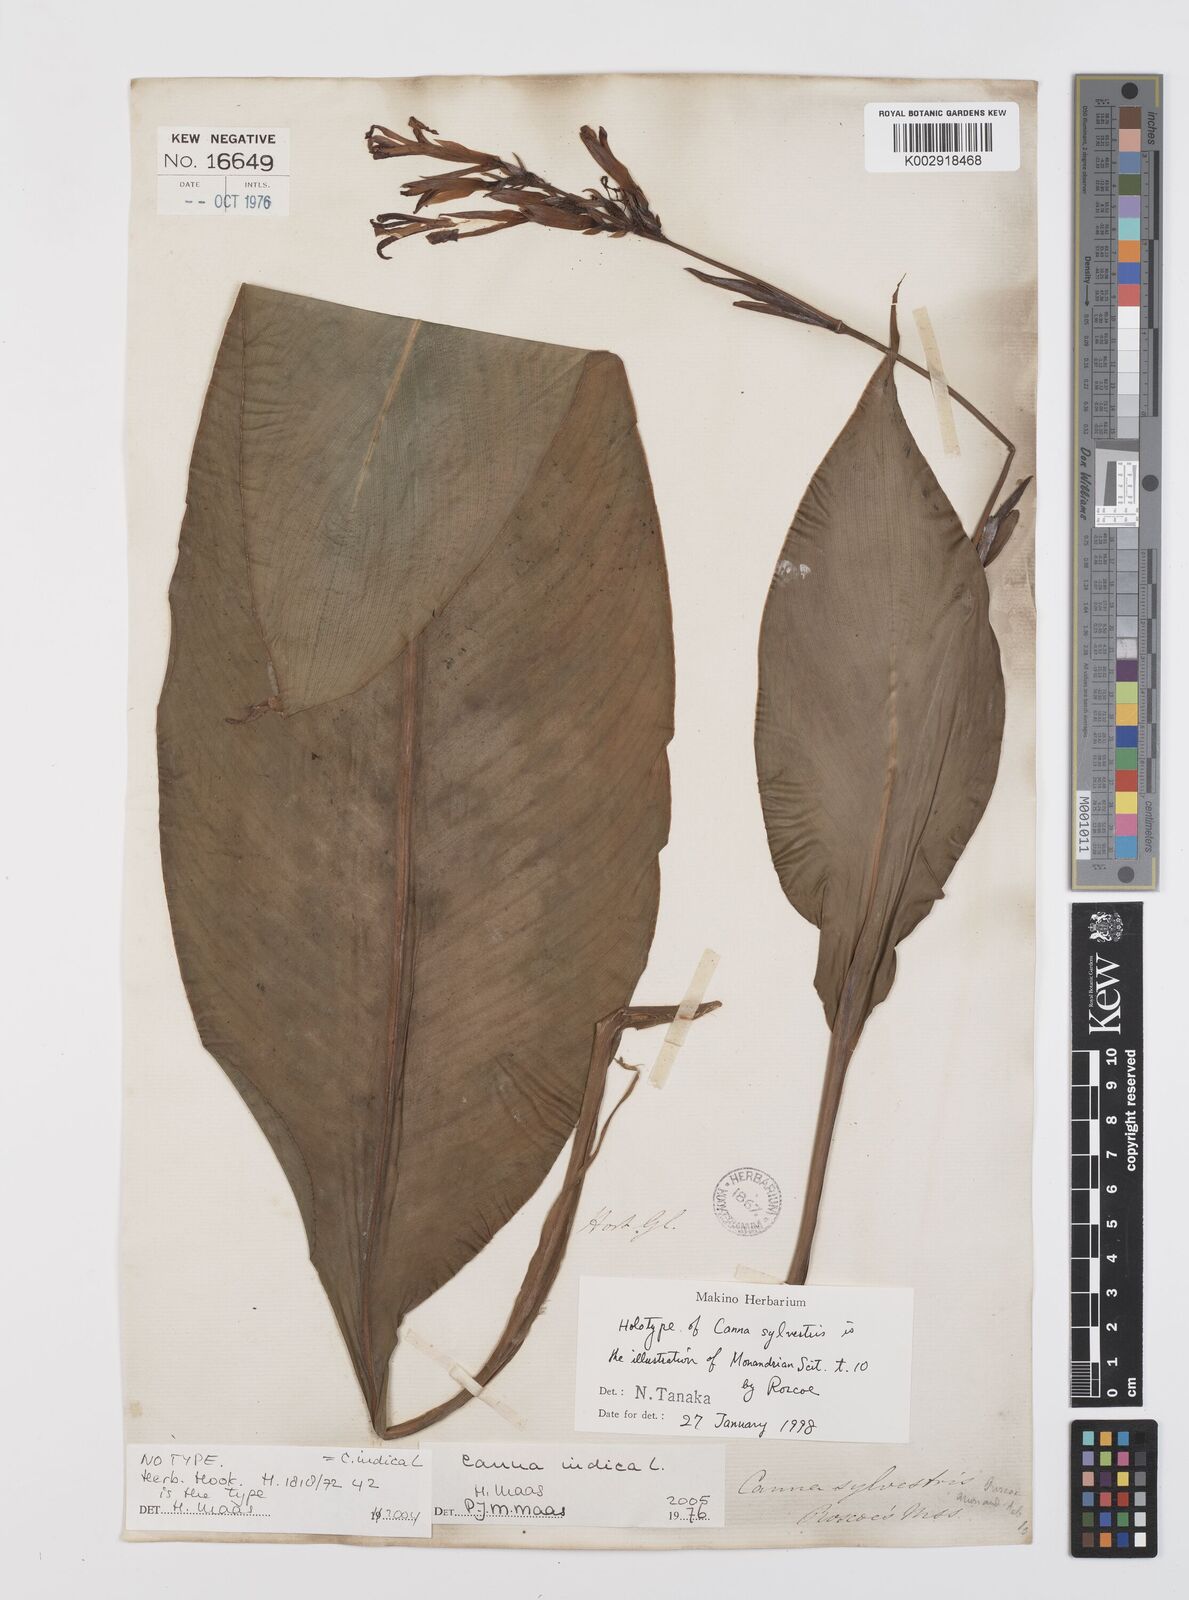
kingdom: Plantae
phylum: Tracheophyta
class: Liliopsida
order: Zingiberales
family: Cannaceae
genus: Canna
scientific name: Canna indica
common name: Indian shot
